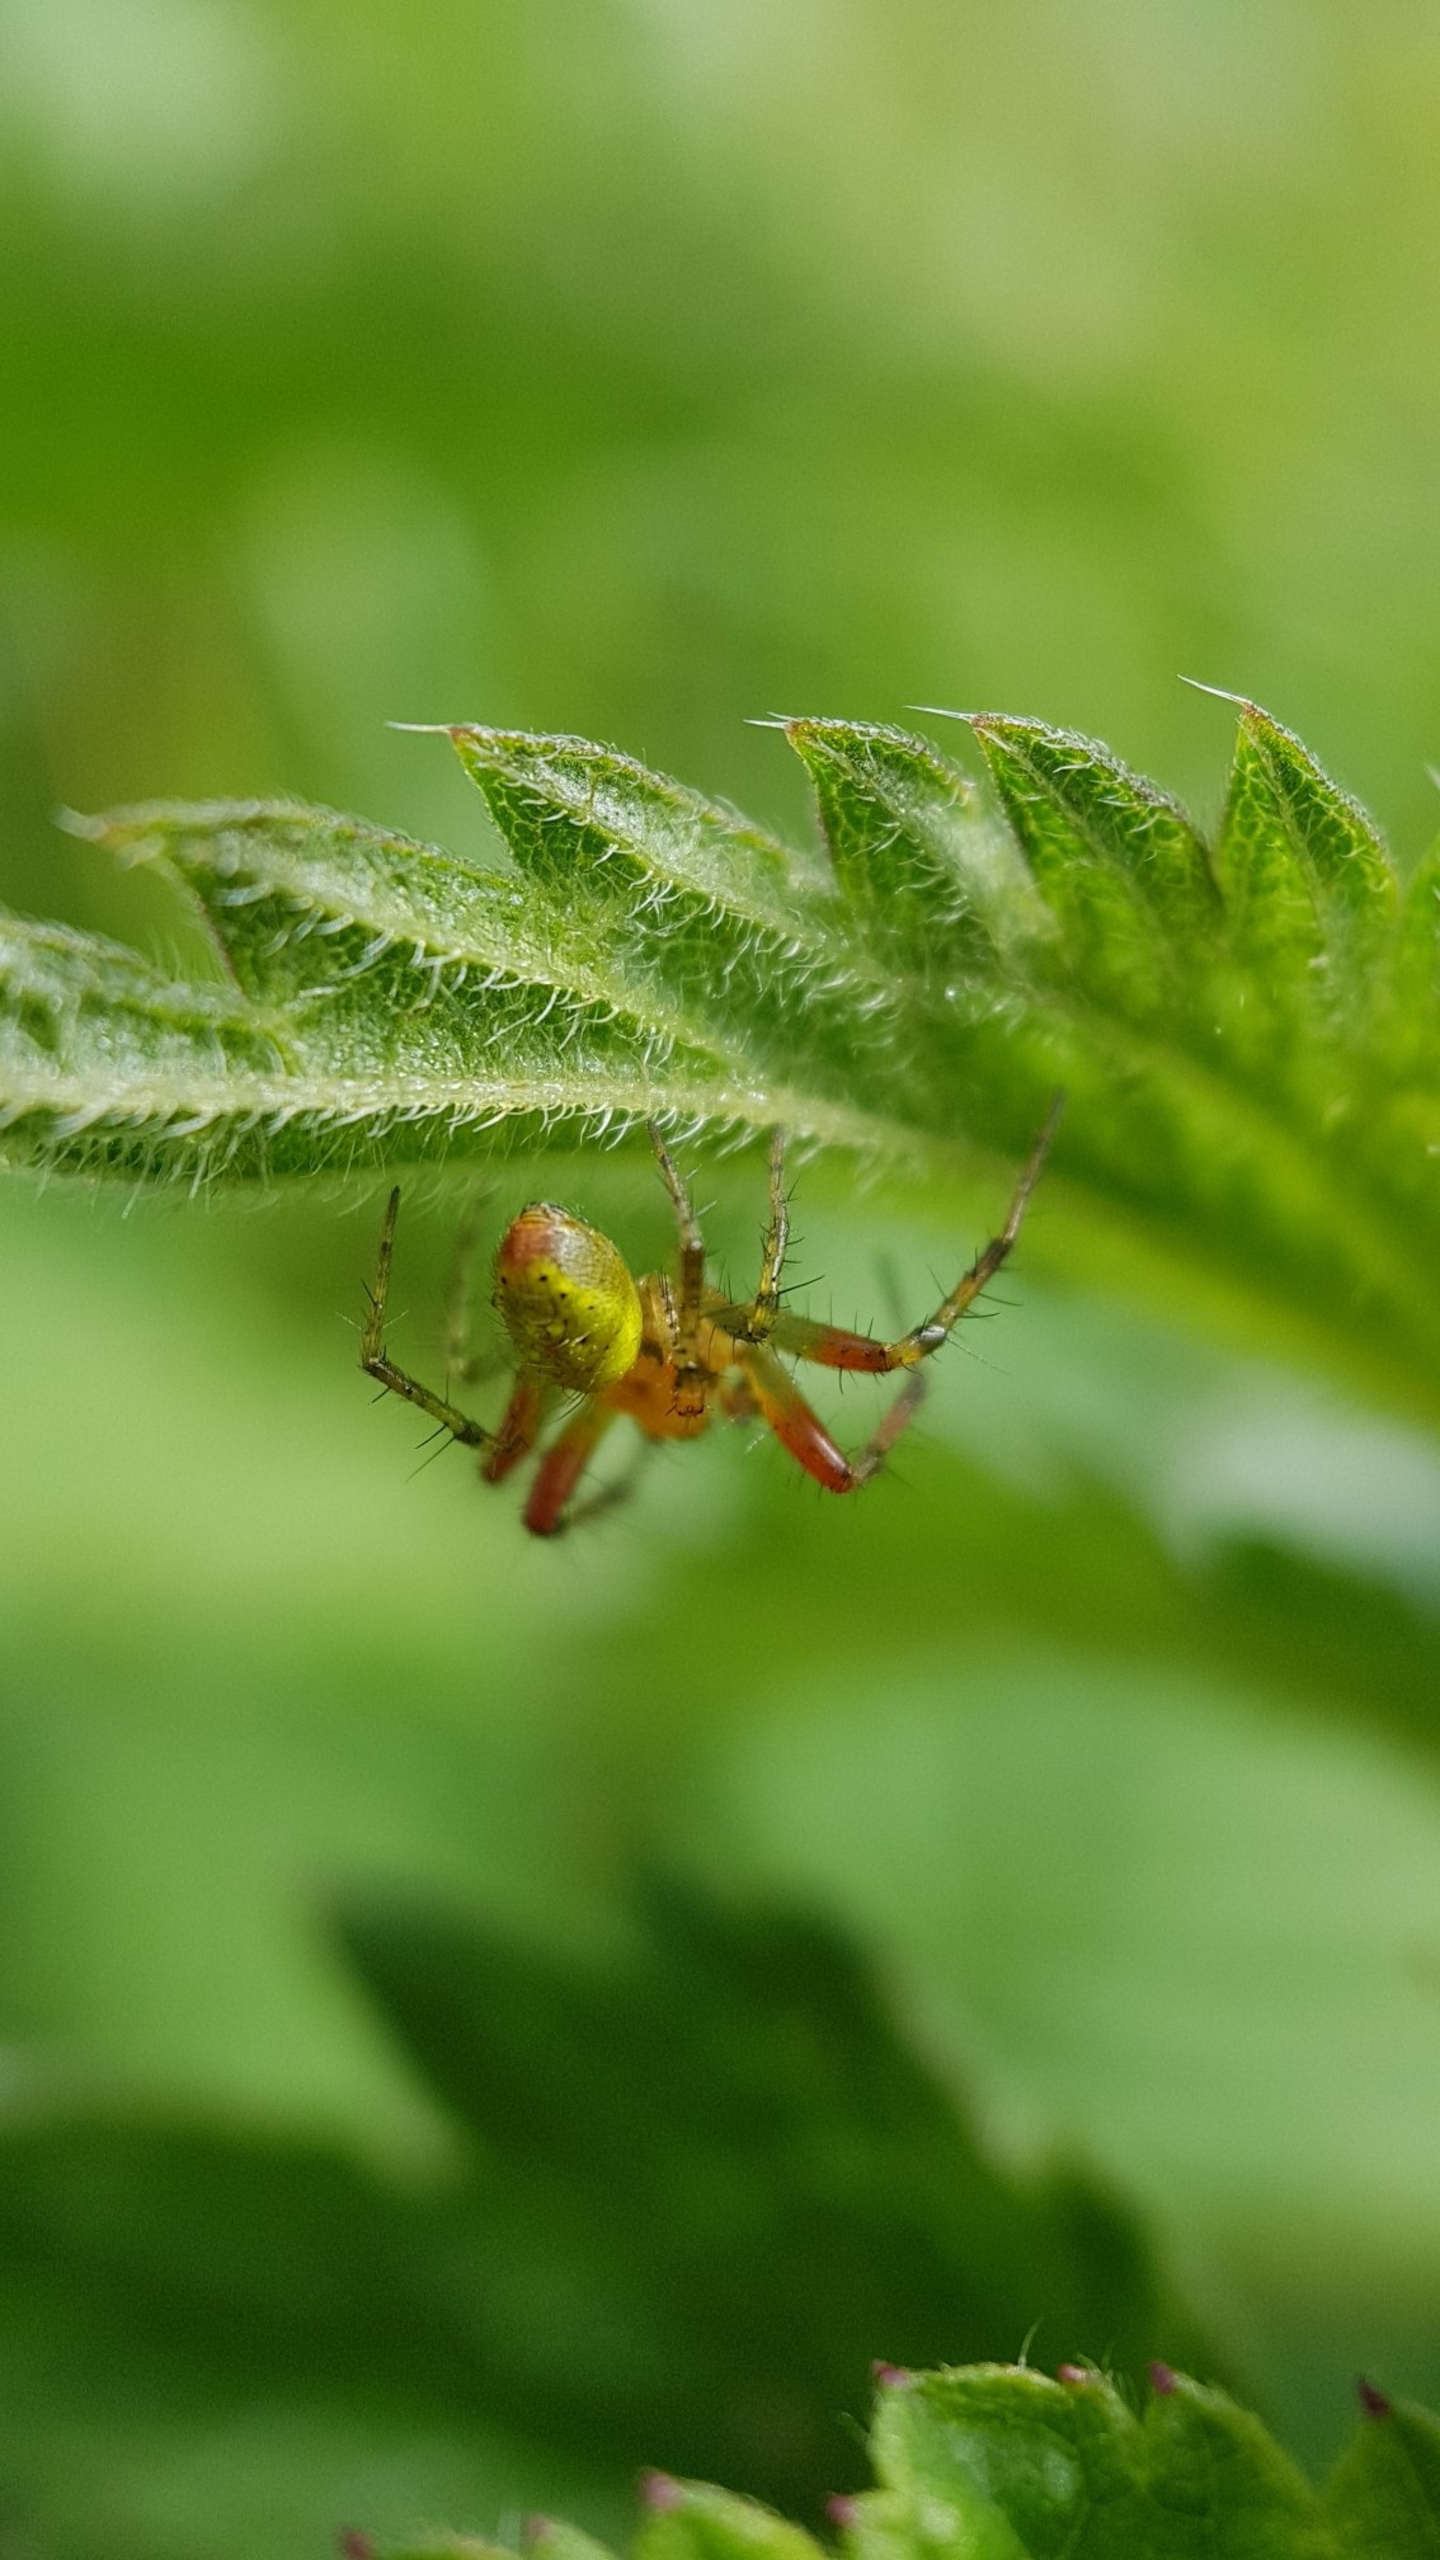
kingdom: Animalia
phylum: Arthropoda
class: Arachnida
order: Araneae
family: Araneidae
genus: Araniella
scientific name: Araniella
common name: Agurkeedderkopslægten
